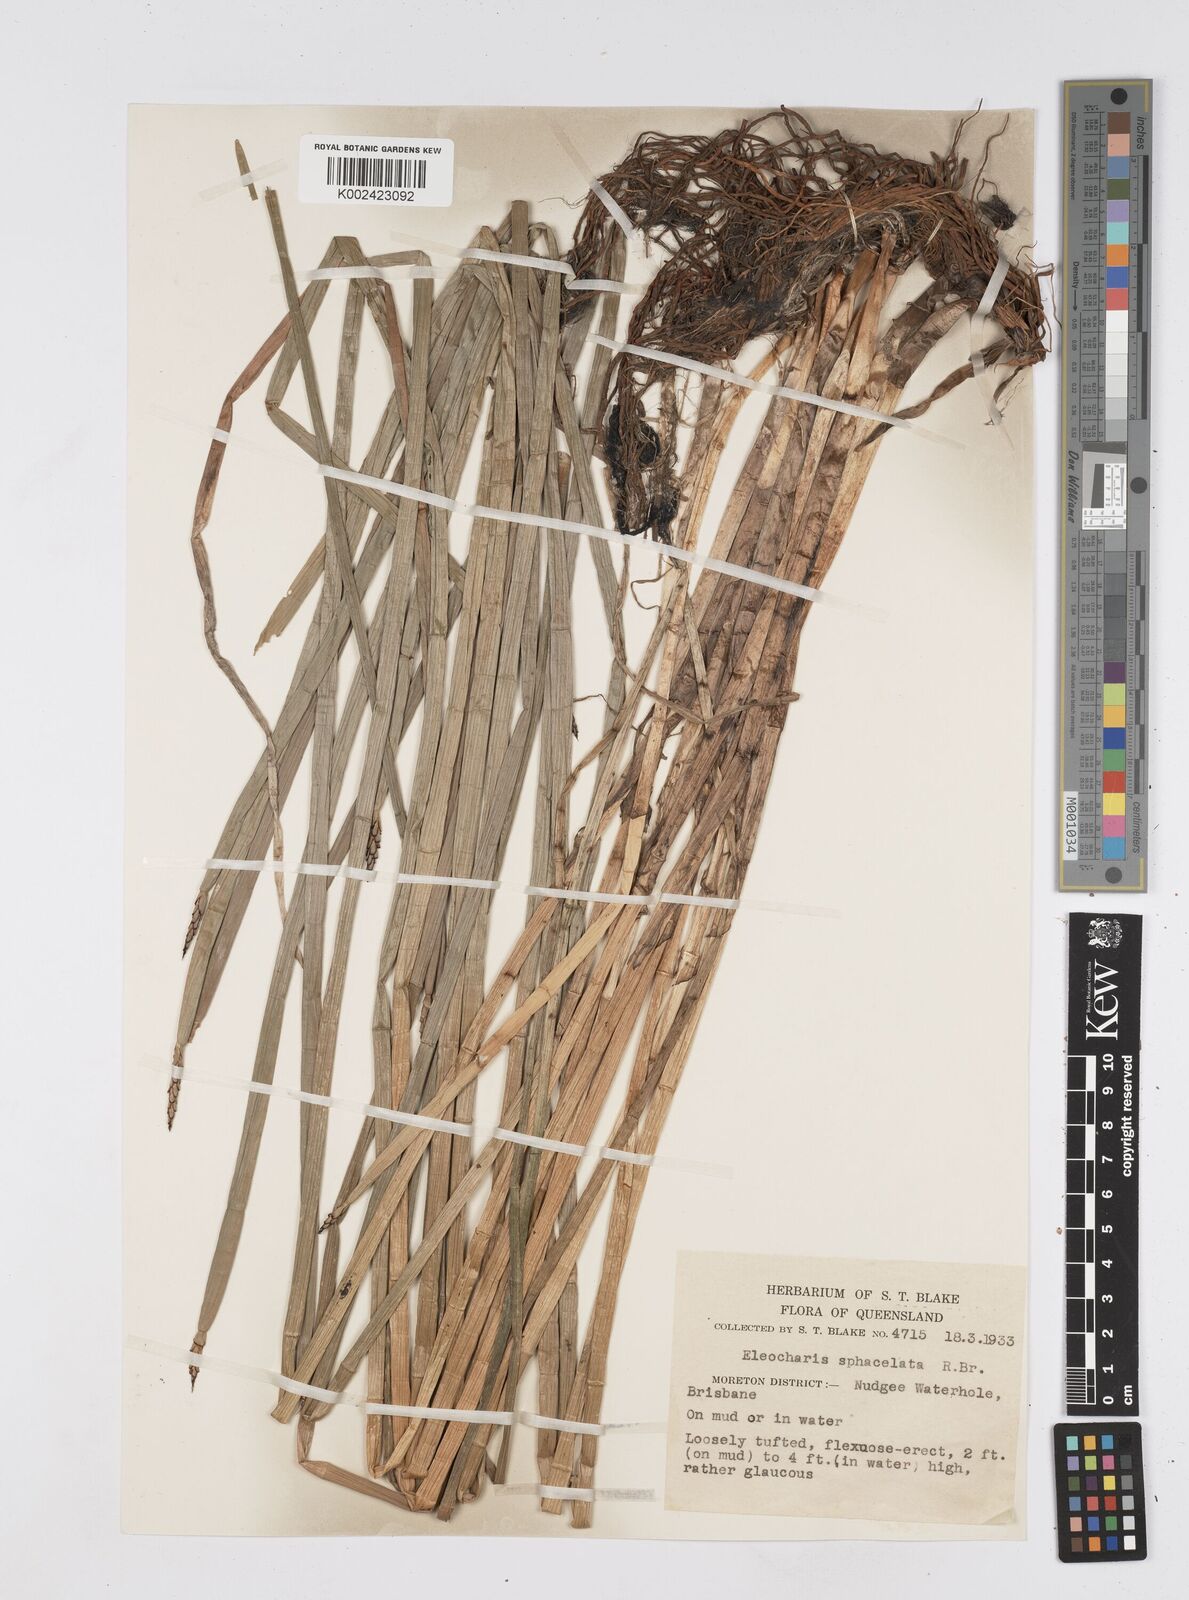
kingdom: Plantae
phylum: Tracheophyta
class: Liliopsida
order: Poales
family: Cyperaceae
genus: Eleocharis
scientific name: Eleocharis sphacelata
